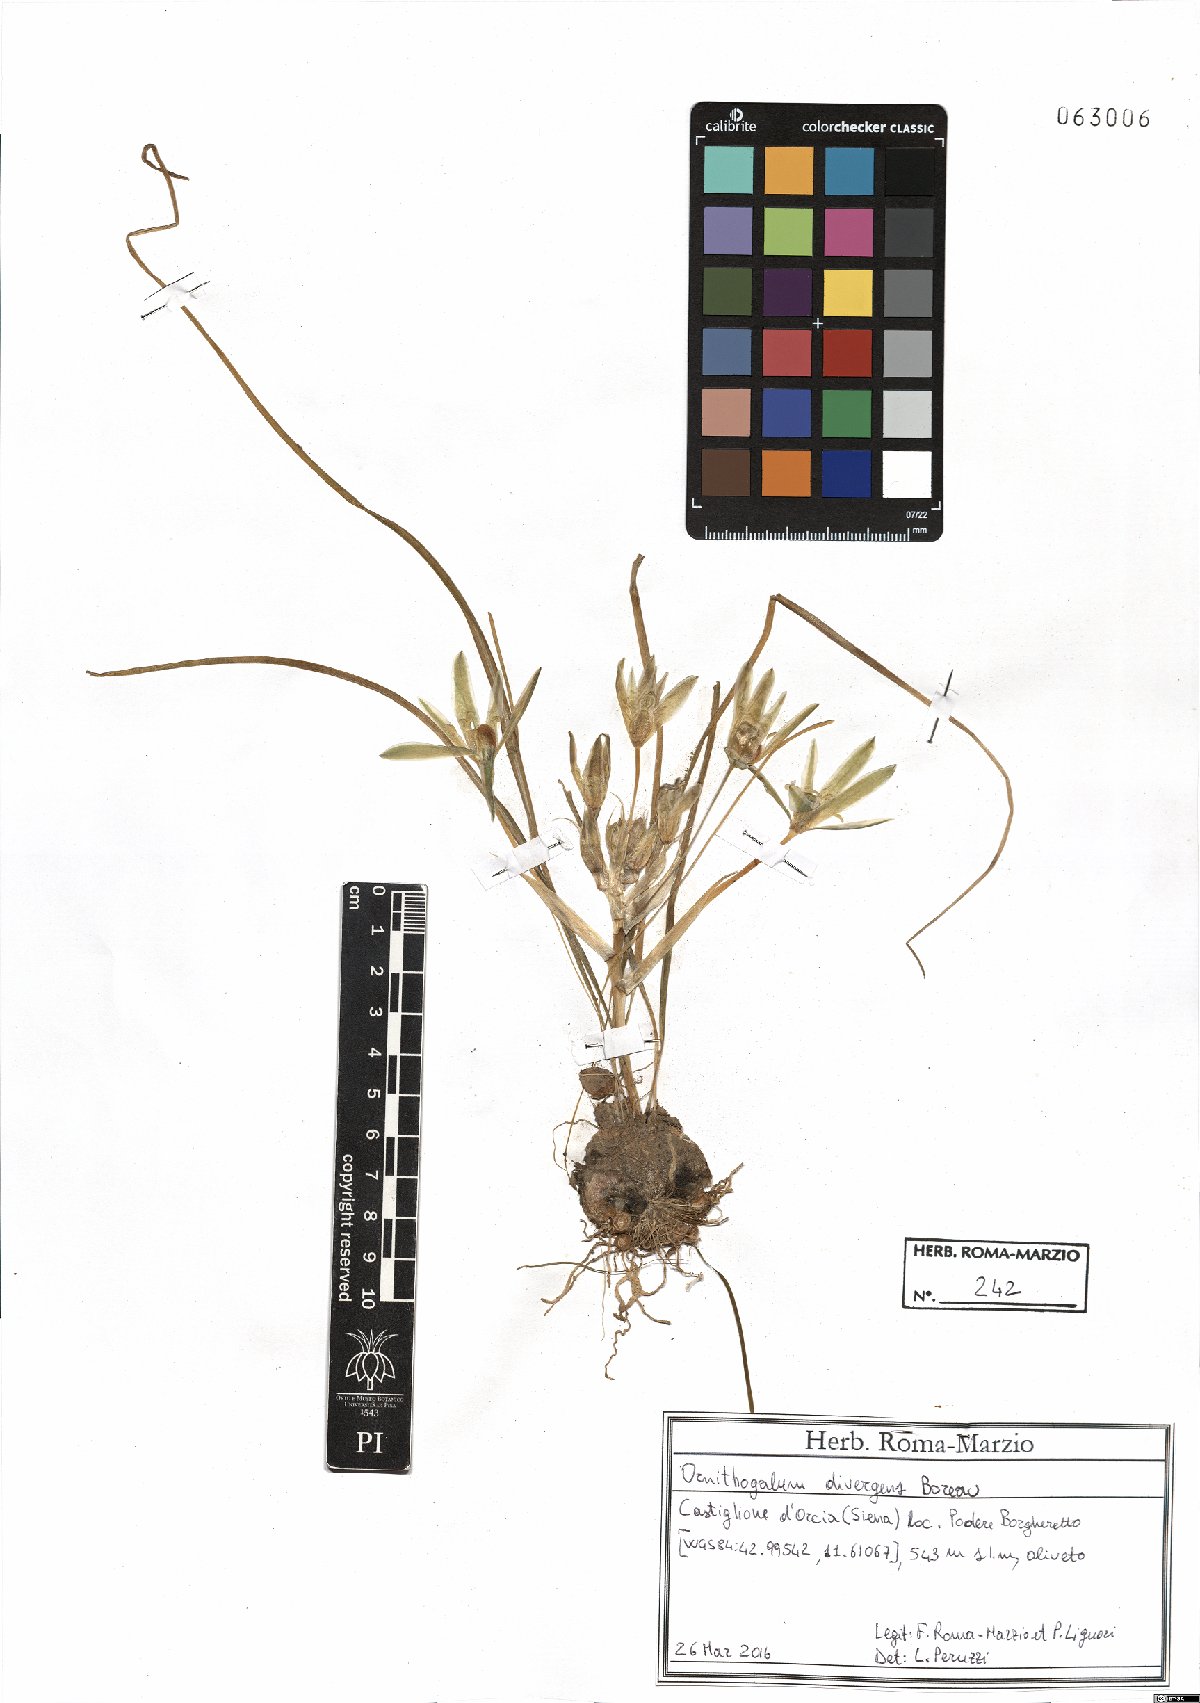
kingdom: Plantae
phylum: Tracheophyta
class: Liliopsida
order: Asparagales
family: Asparagaceae
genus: Ornithogalum
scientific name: Ornithogalum divergens
